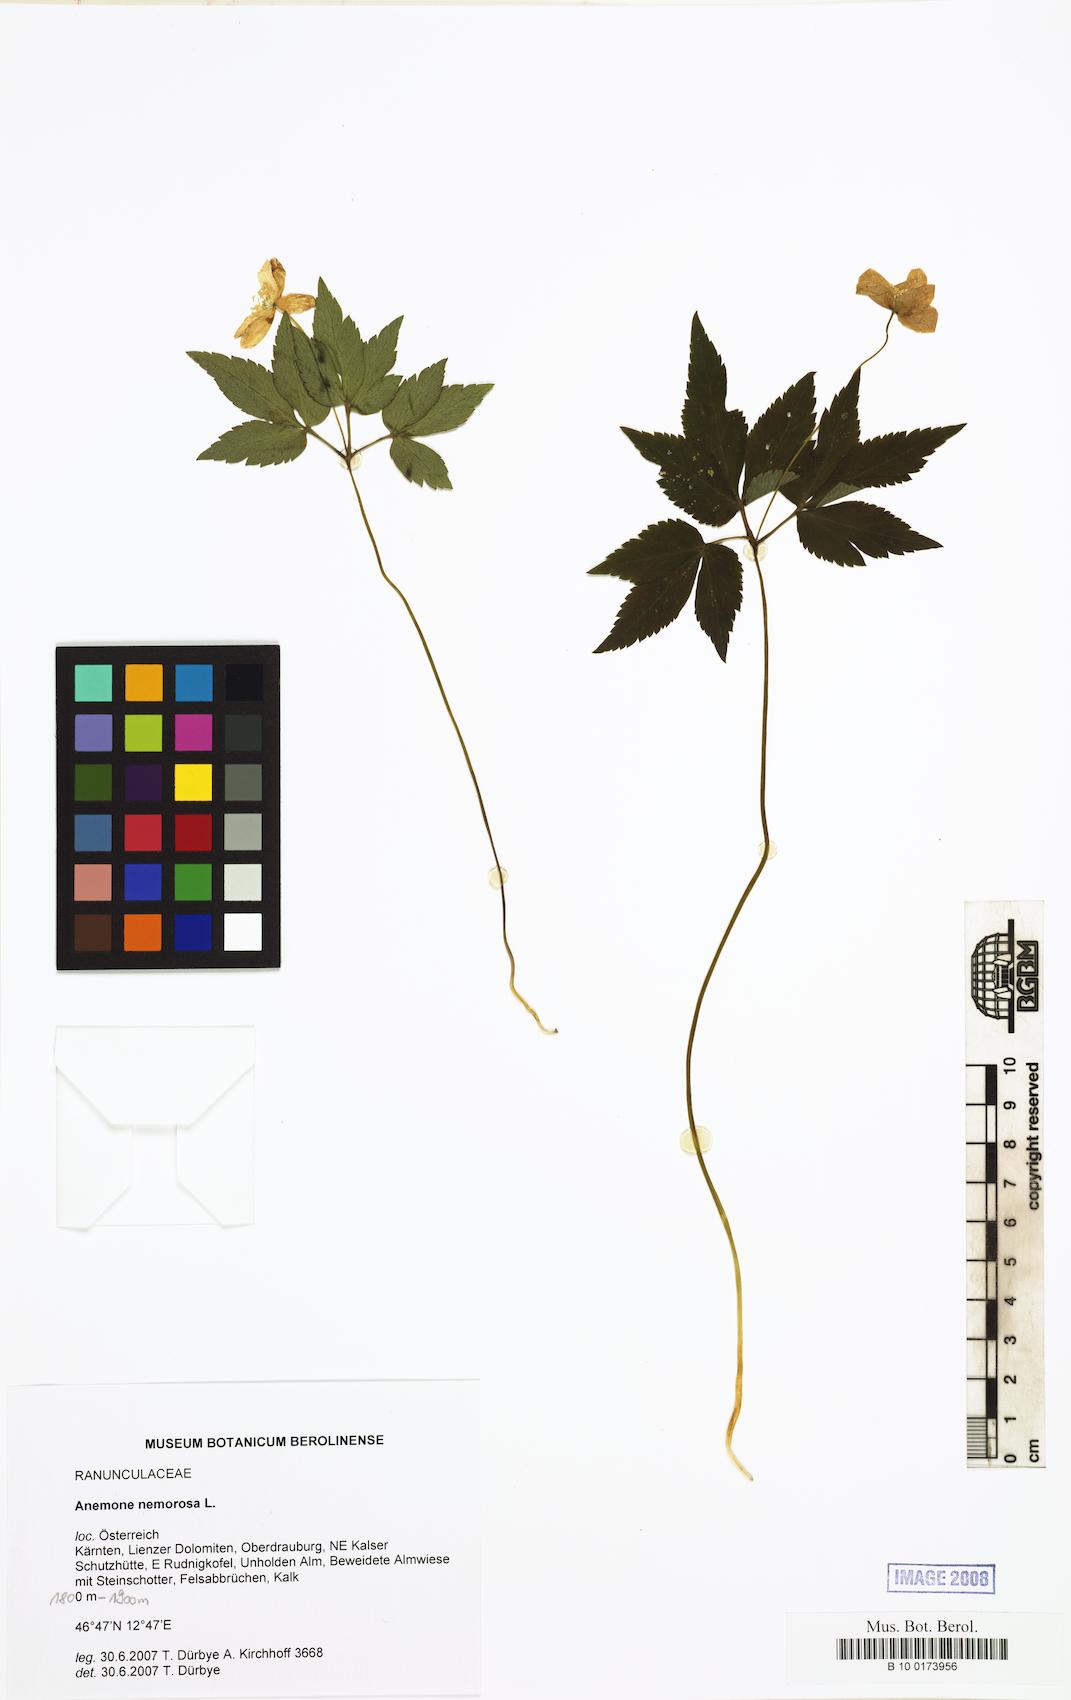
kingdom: Plantae
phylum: Tracheophyta
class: Magnoliopsida
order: Ranunculales
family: Ranunculaceae
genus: Anemone
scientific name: Anemone nemorosa
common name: Wood anemone
